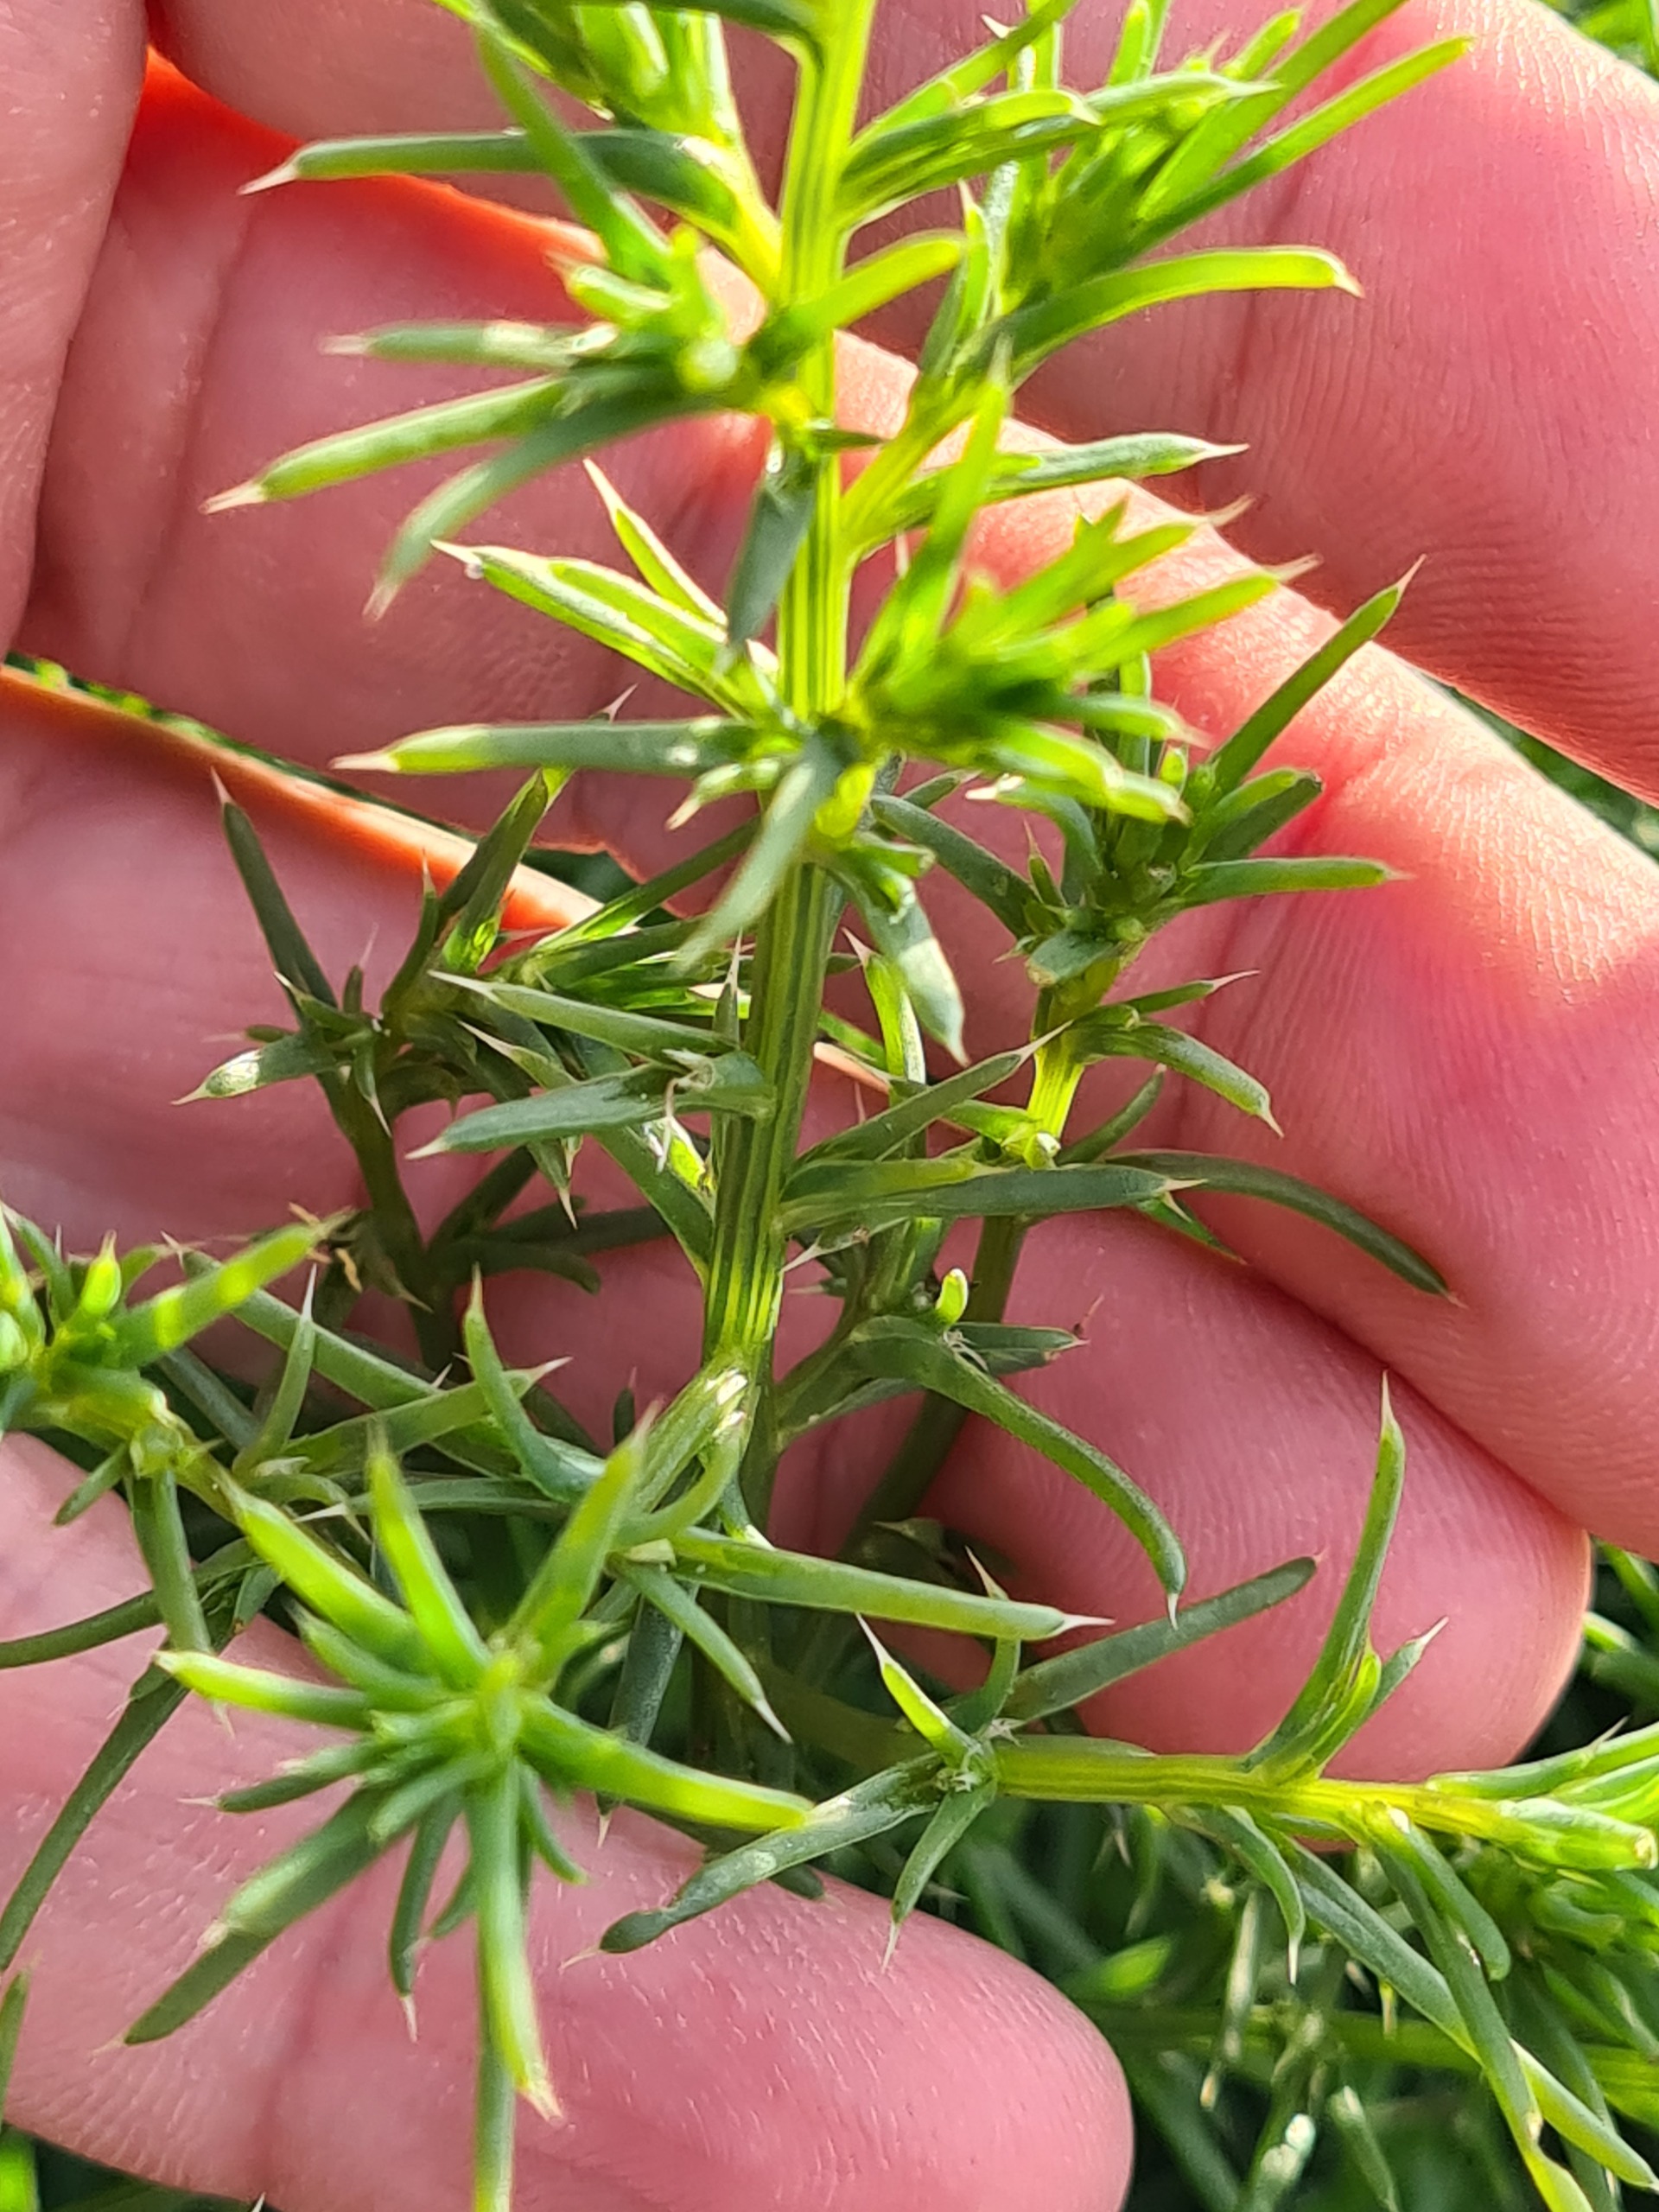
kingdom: Plantae
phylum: Tracheophyta
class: Magnoliopsida
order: Caryophyllales
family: Amaranthaceae
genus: Salsola
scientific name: Salsola kali
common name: Sodaurt
